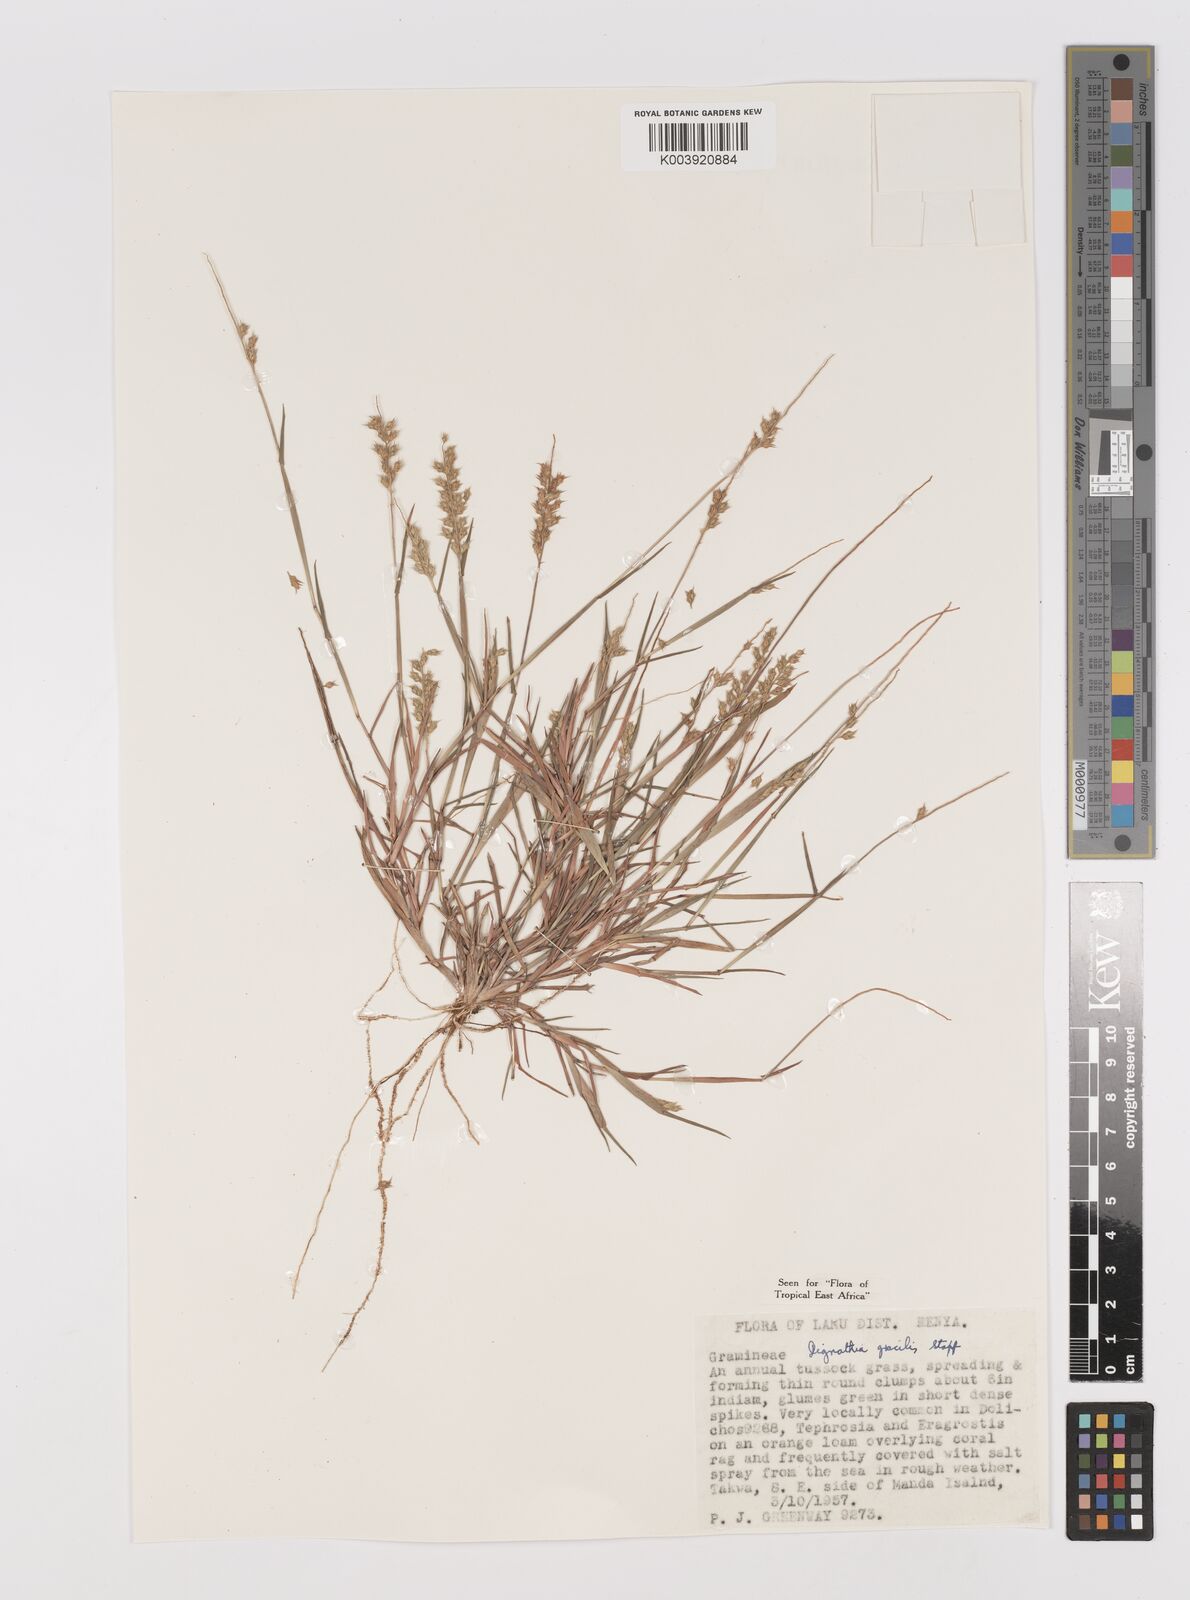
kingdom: Plantae
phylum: Tracheophyta
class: Liliopsida
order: Poales
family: Poaceae
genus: Dignathia
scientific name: Dignathia gracilis
